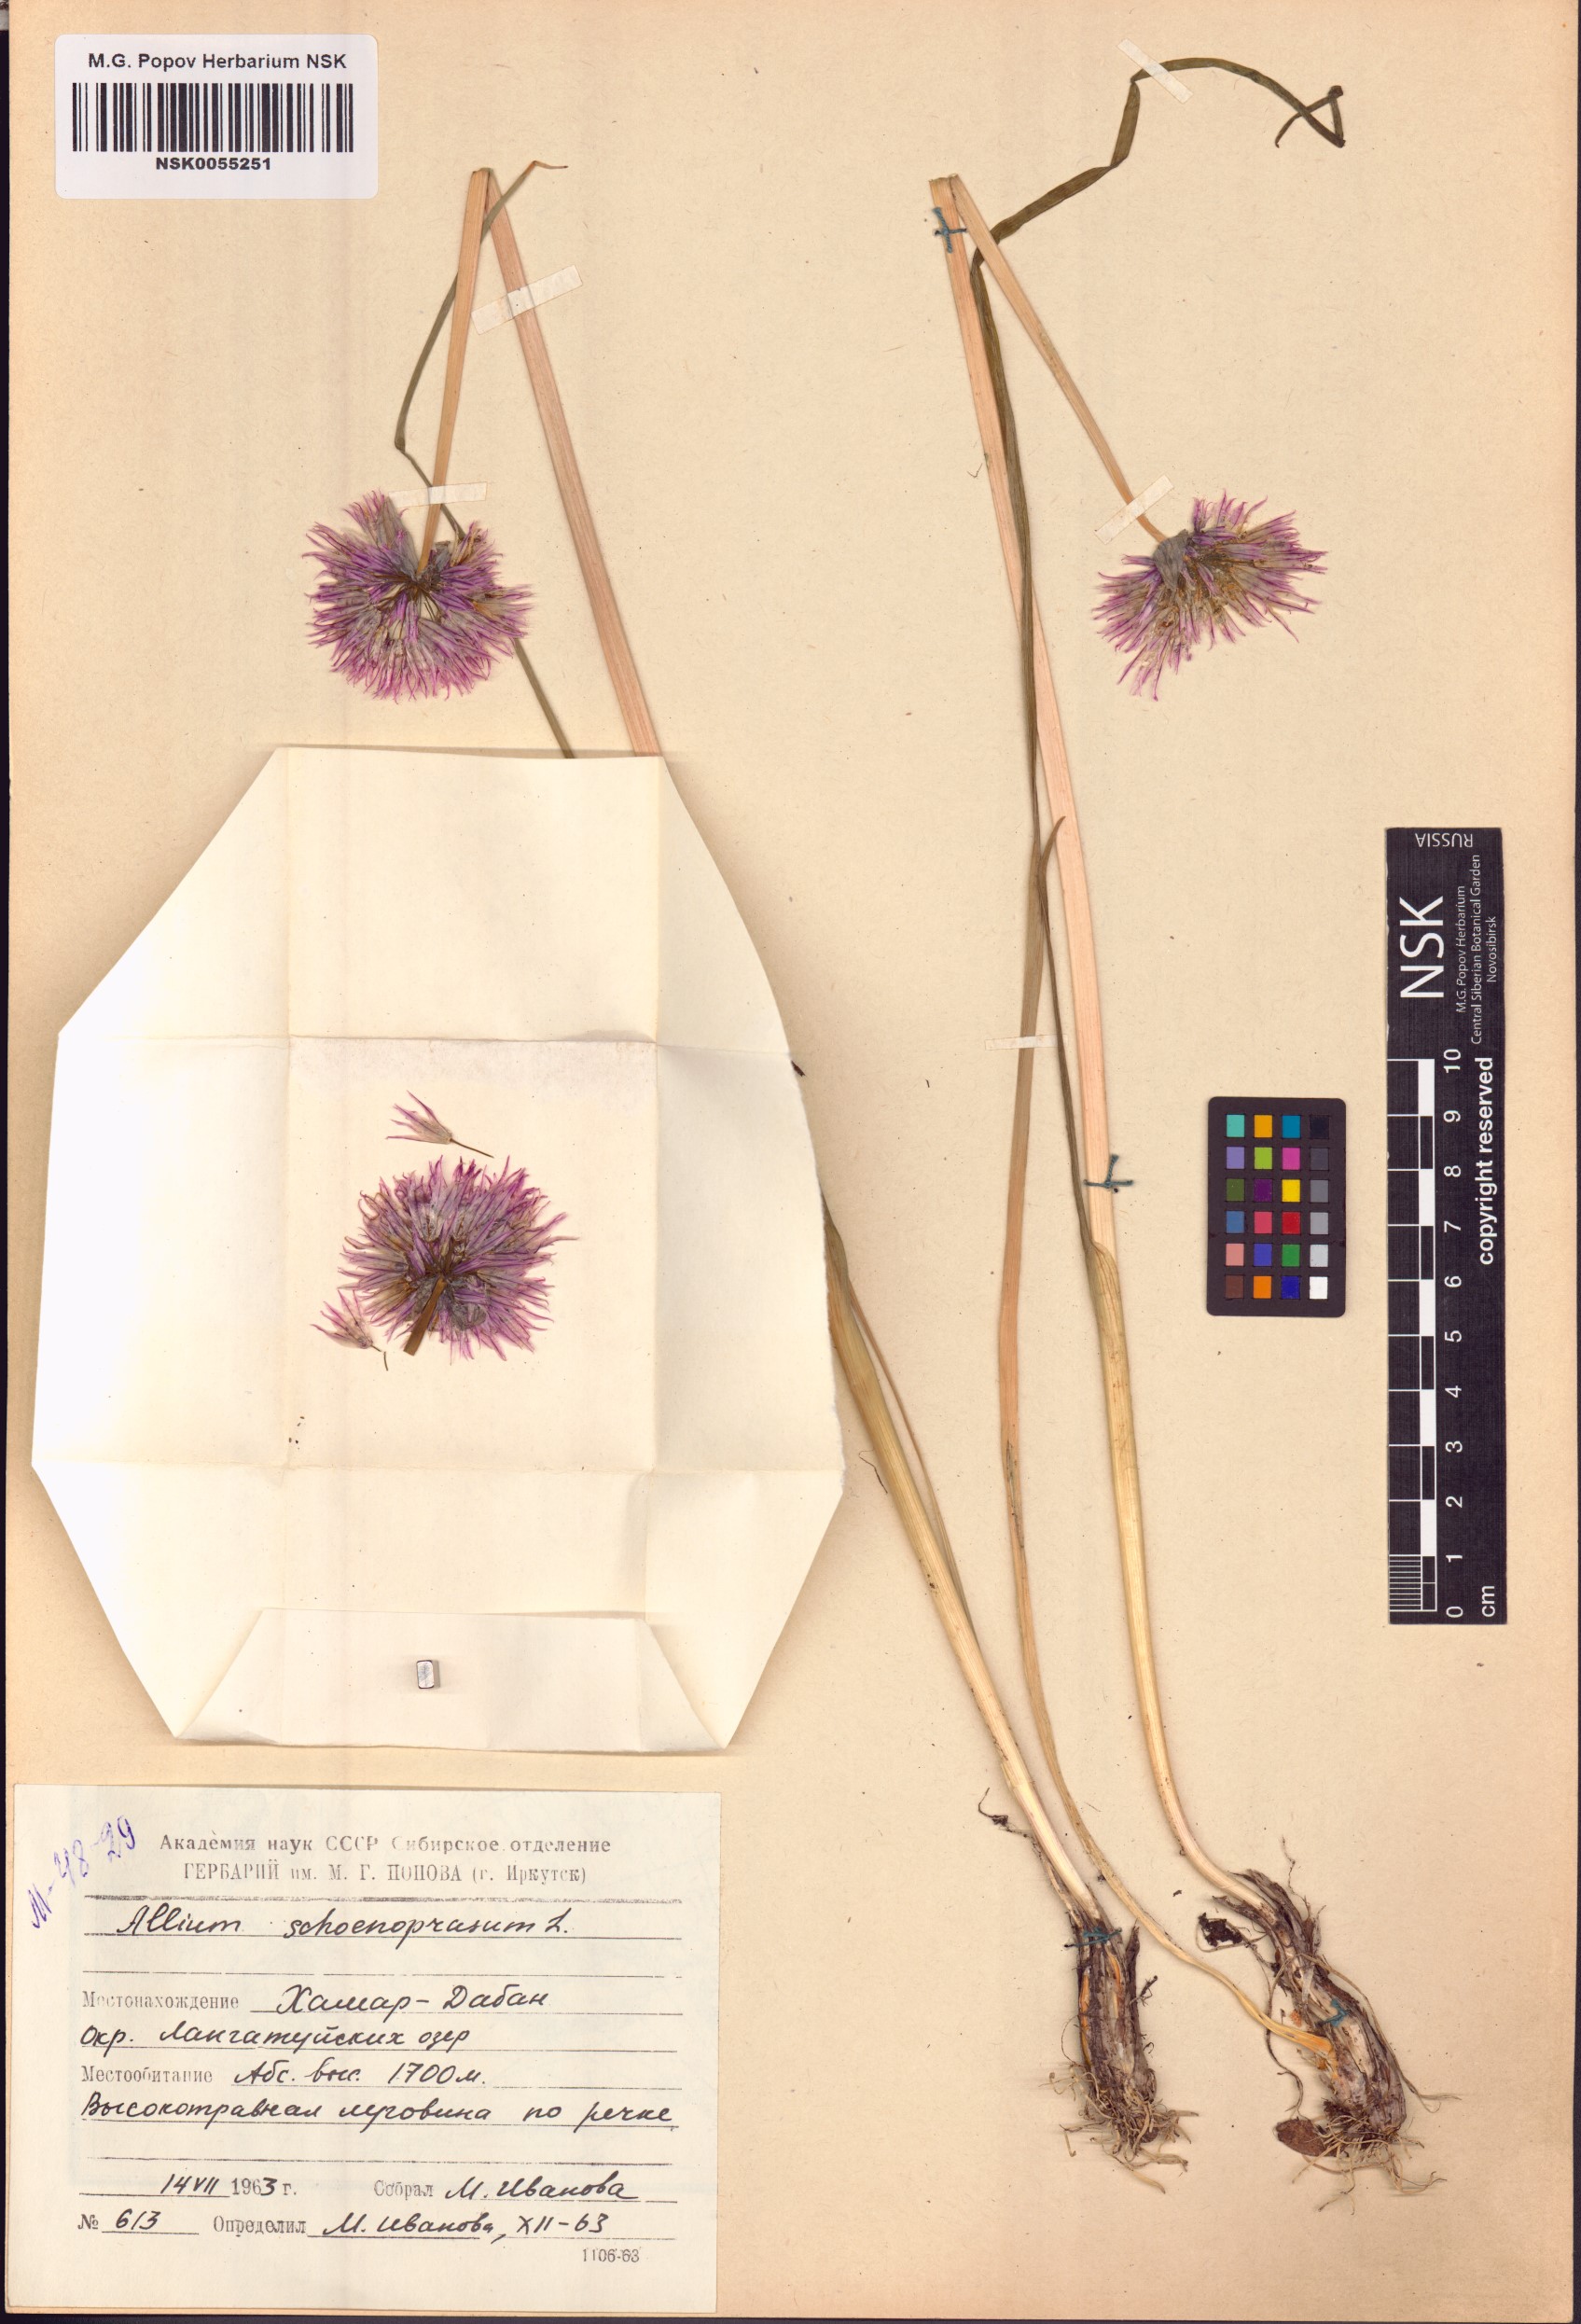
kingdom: Plantae
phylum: Tracheophyta
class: Liliopsida
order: Asparagales
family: Amaryllidaceae
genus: Allium
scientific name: Allium schoenoprasum
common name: Chives
